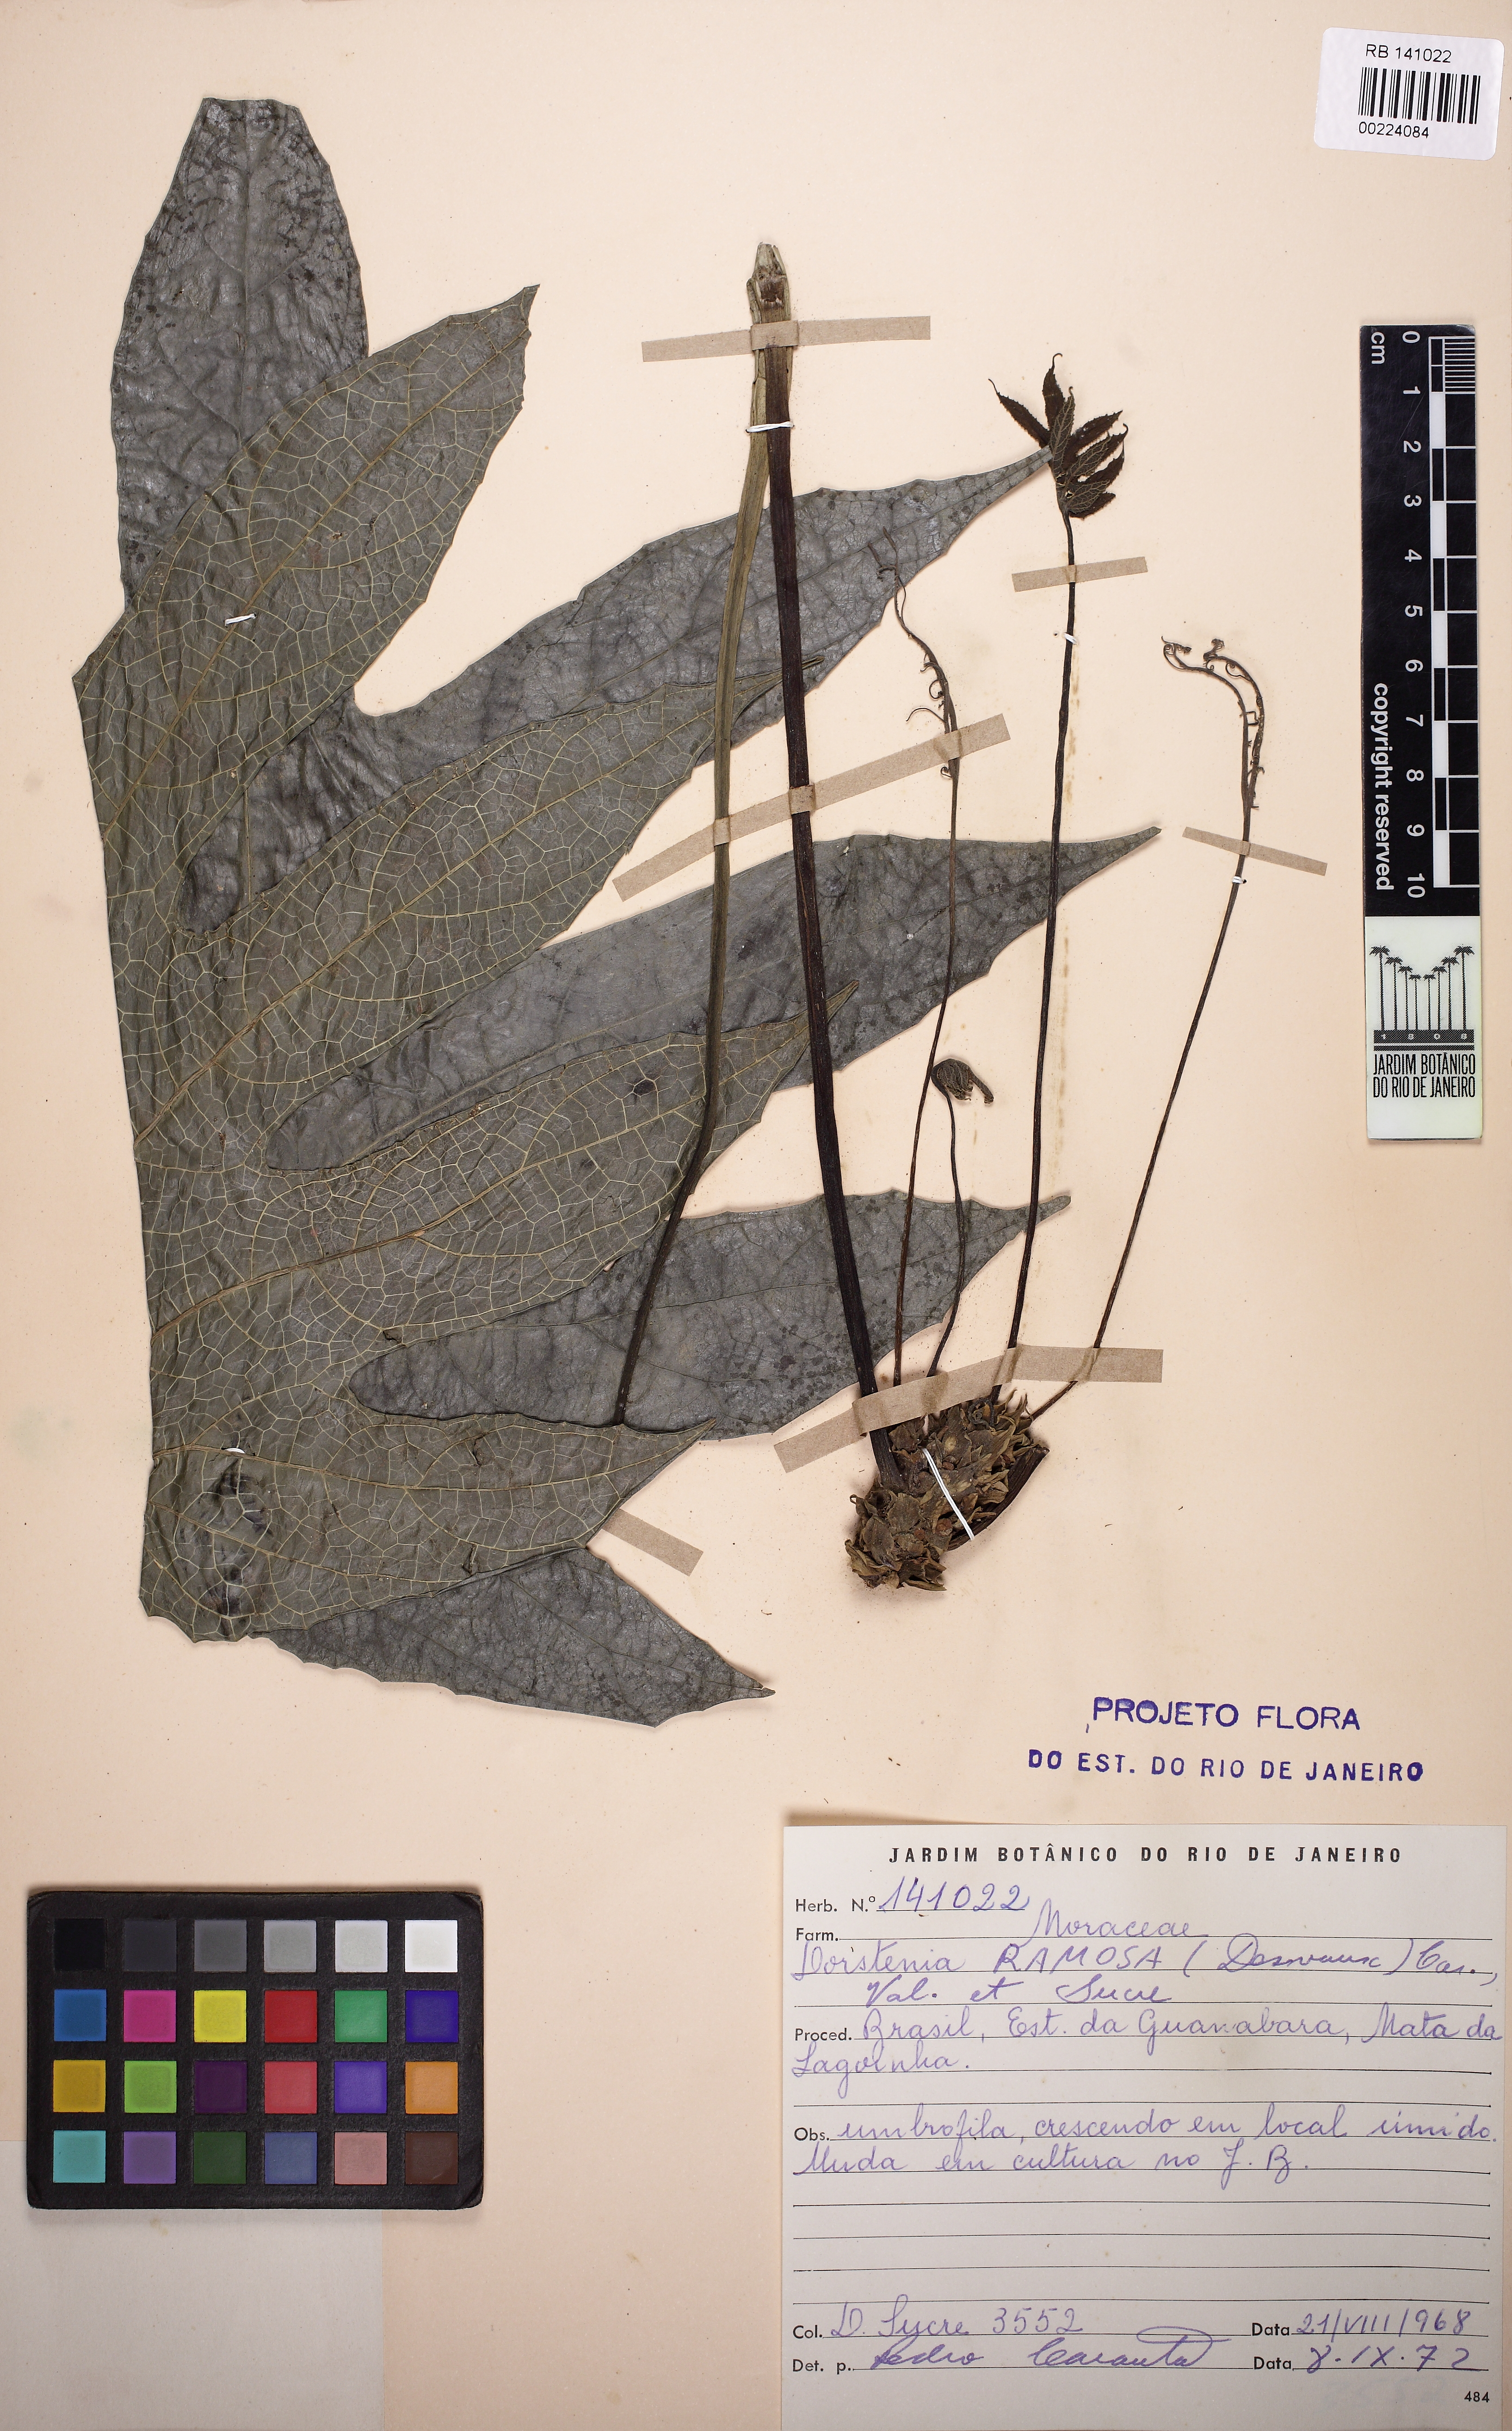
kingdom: Plantae
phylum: Tracheophyta
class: Magnoliopsida
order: Rosales
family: Moraceae
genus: Dorstenia
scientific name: Dorstenia ramosa
